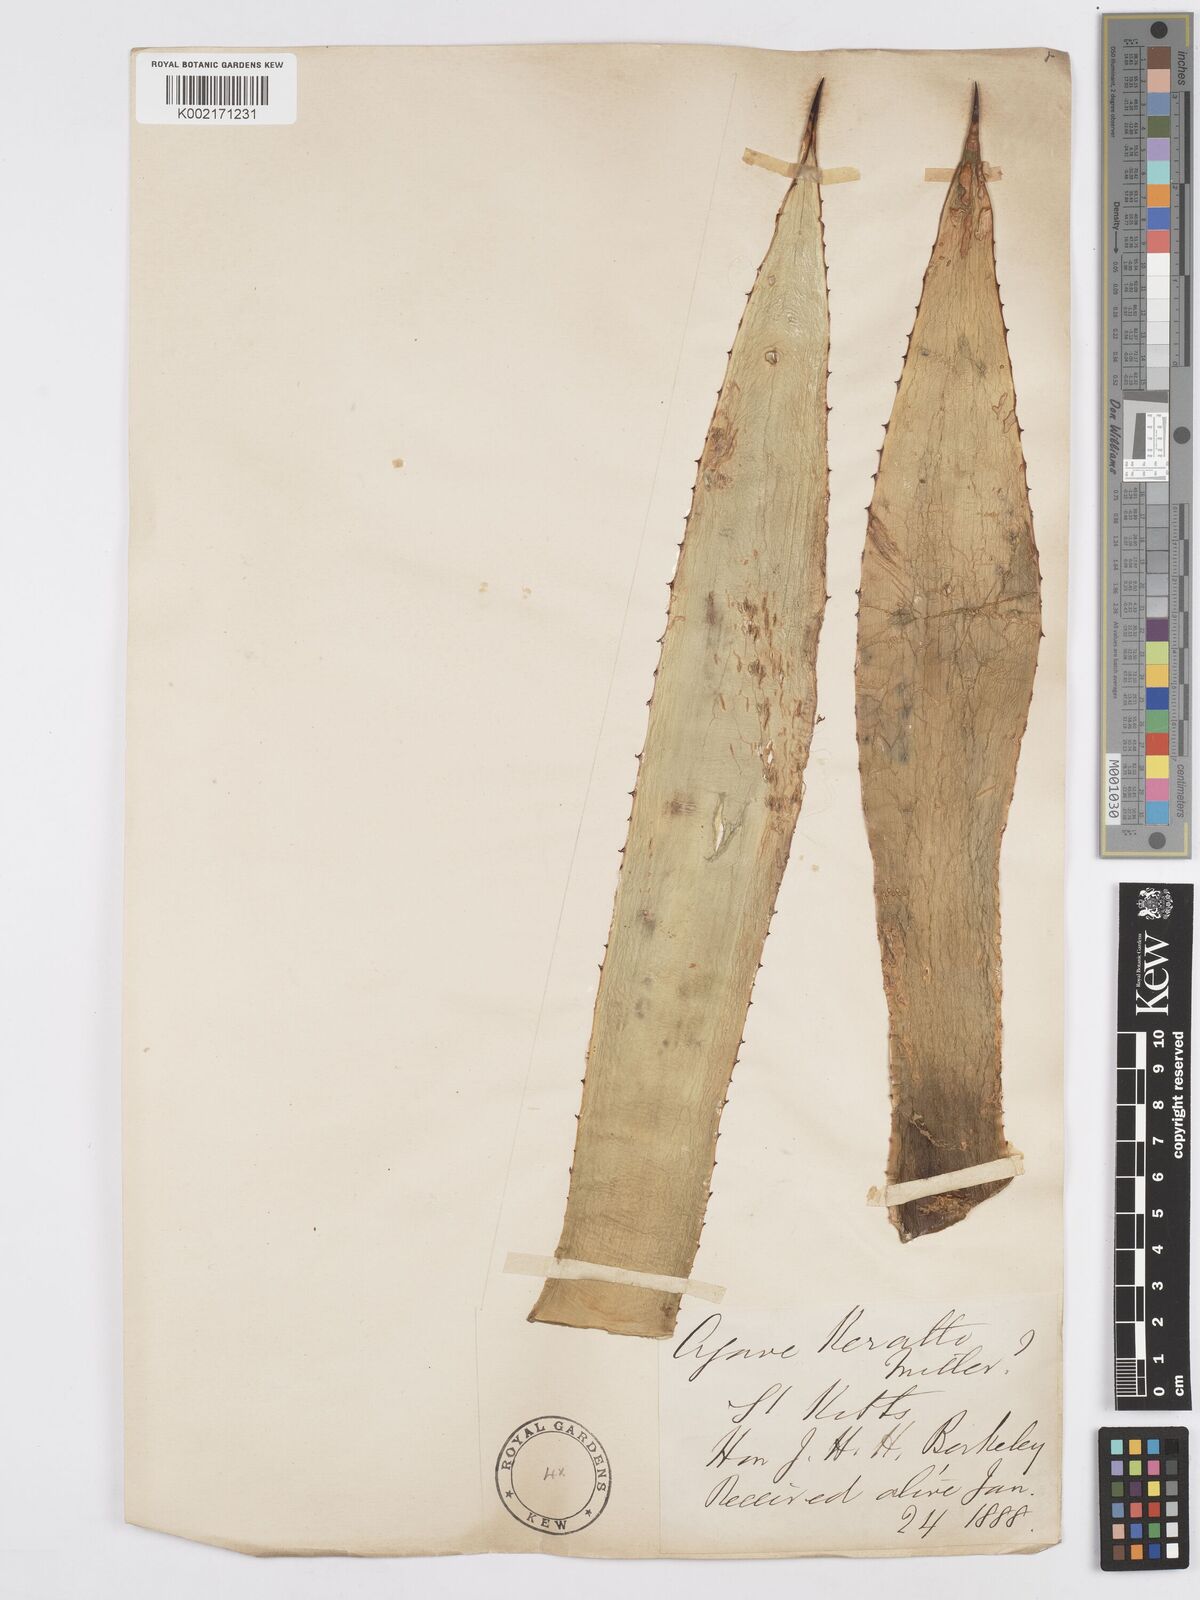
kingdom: Plantae
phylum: Tracheophyta
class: Liliopsida
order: Asparagales
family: Asparagaceae
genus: Agave
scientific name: Agave
